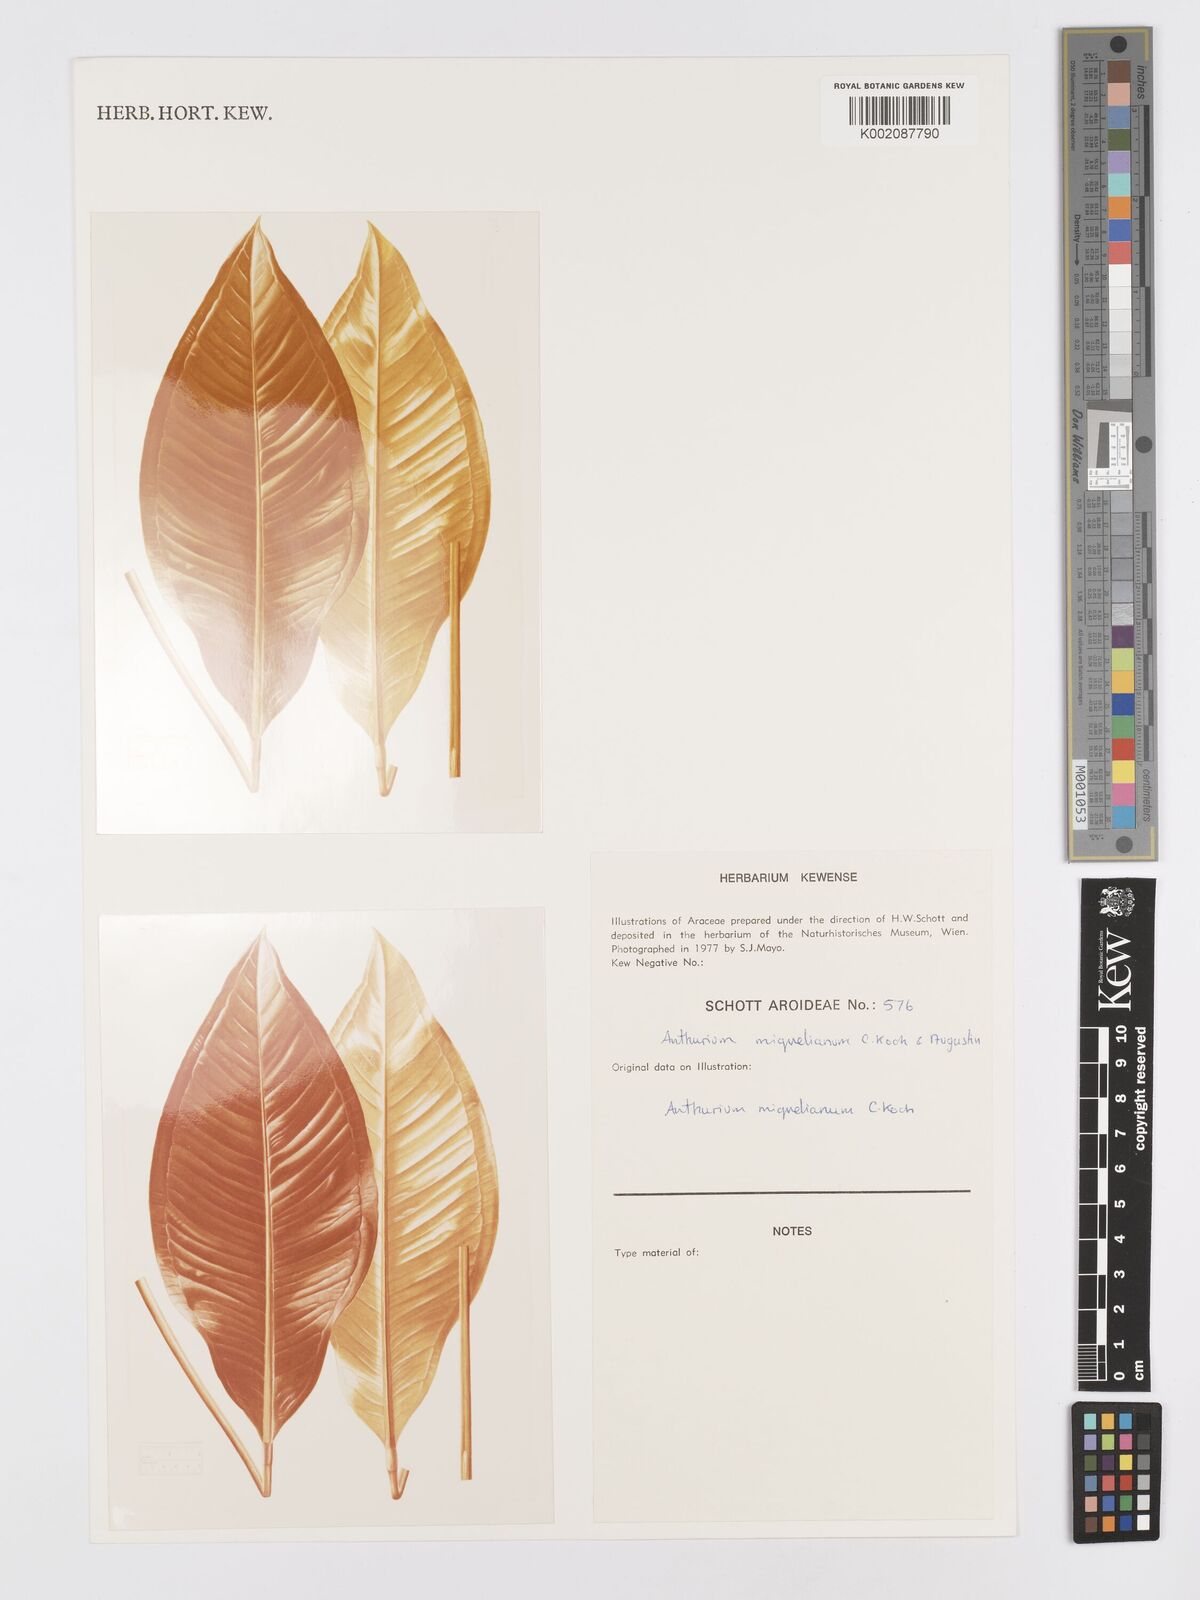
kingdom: Plantae
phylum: Tracheophyta
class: Liliopsida
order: Alismatales
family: Araceae
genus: Anthurium
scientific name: Anthurium parasiticum
